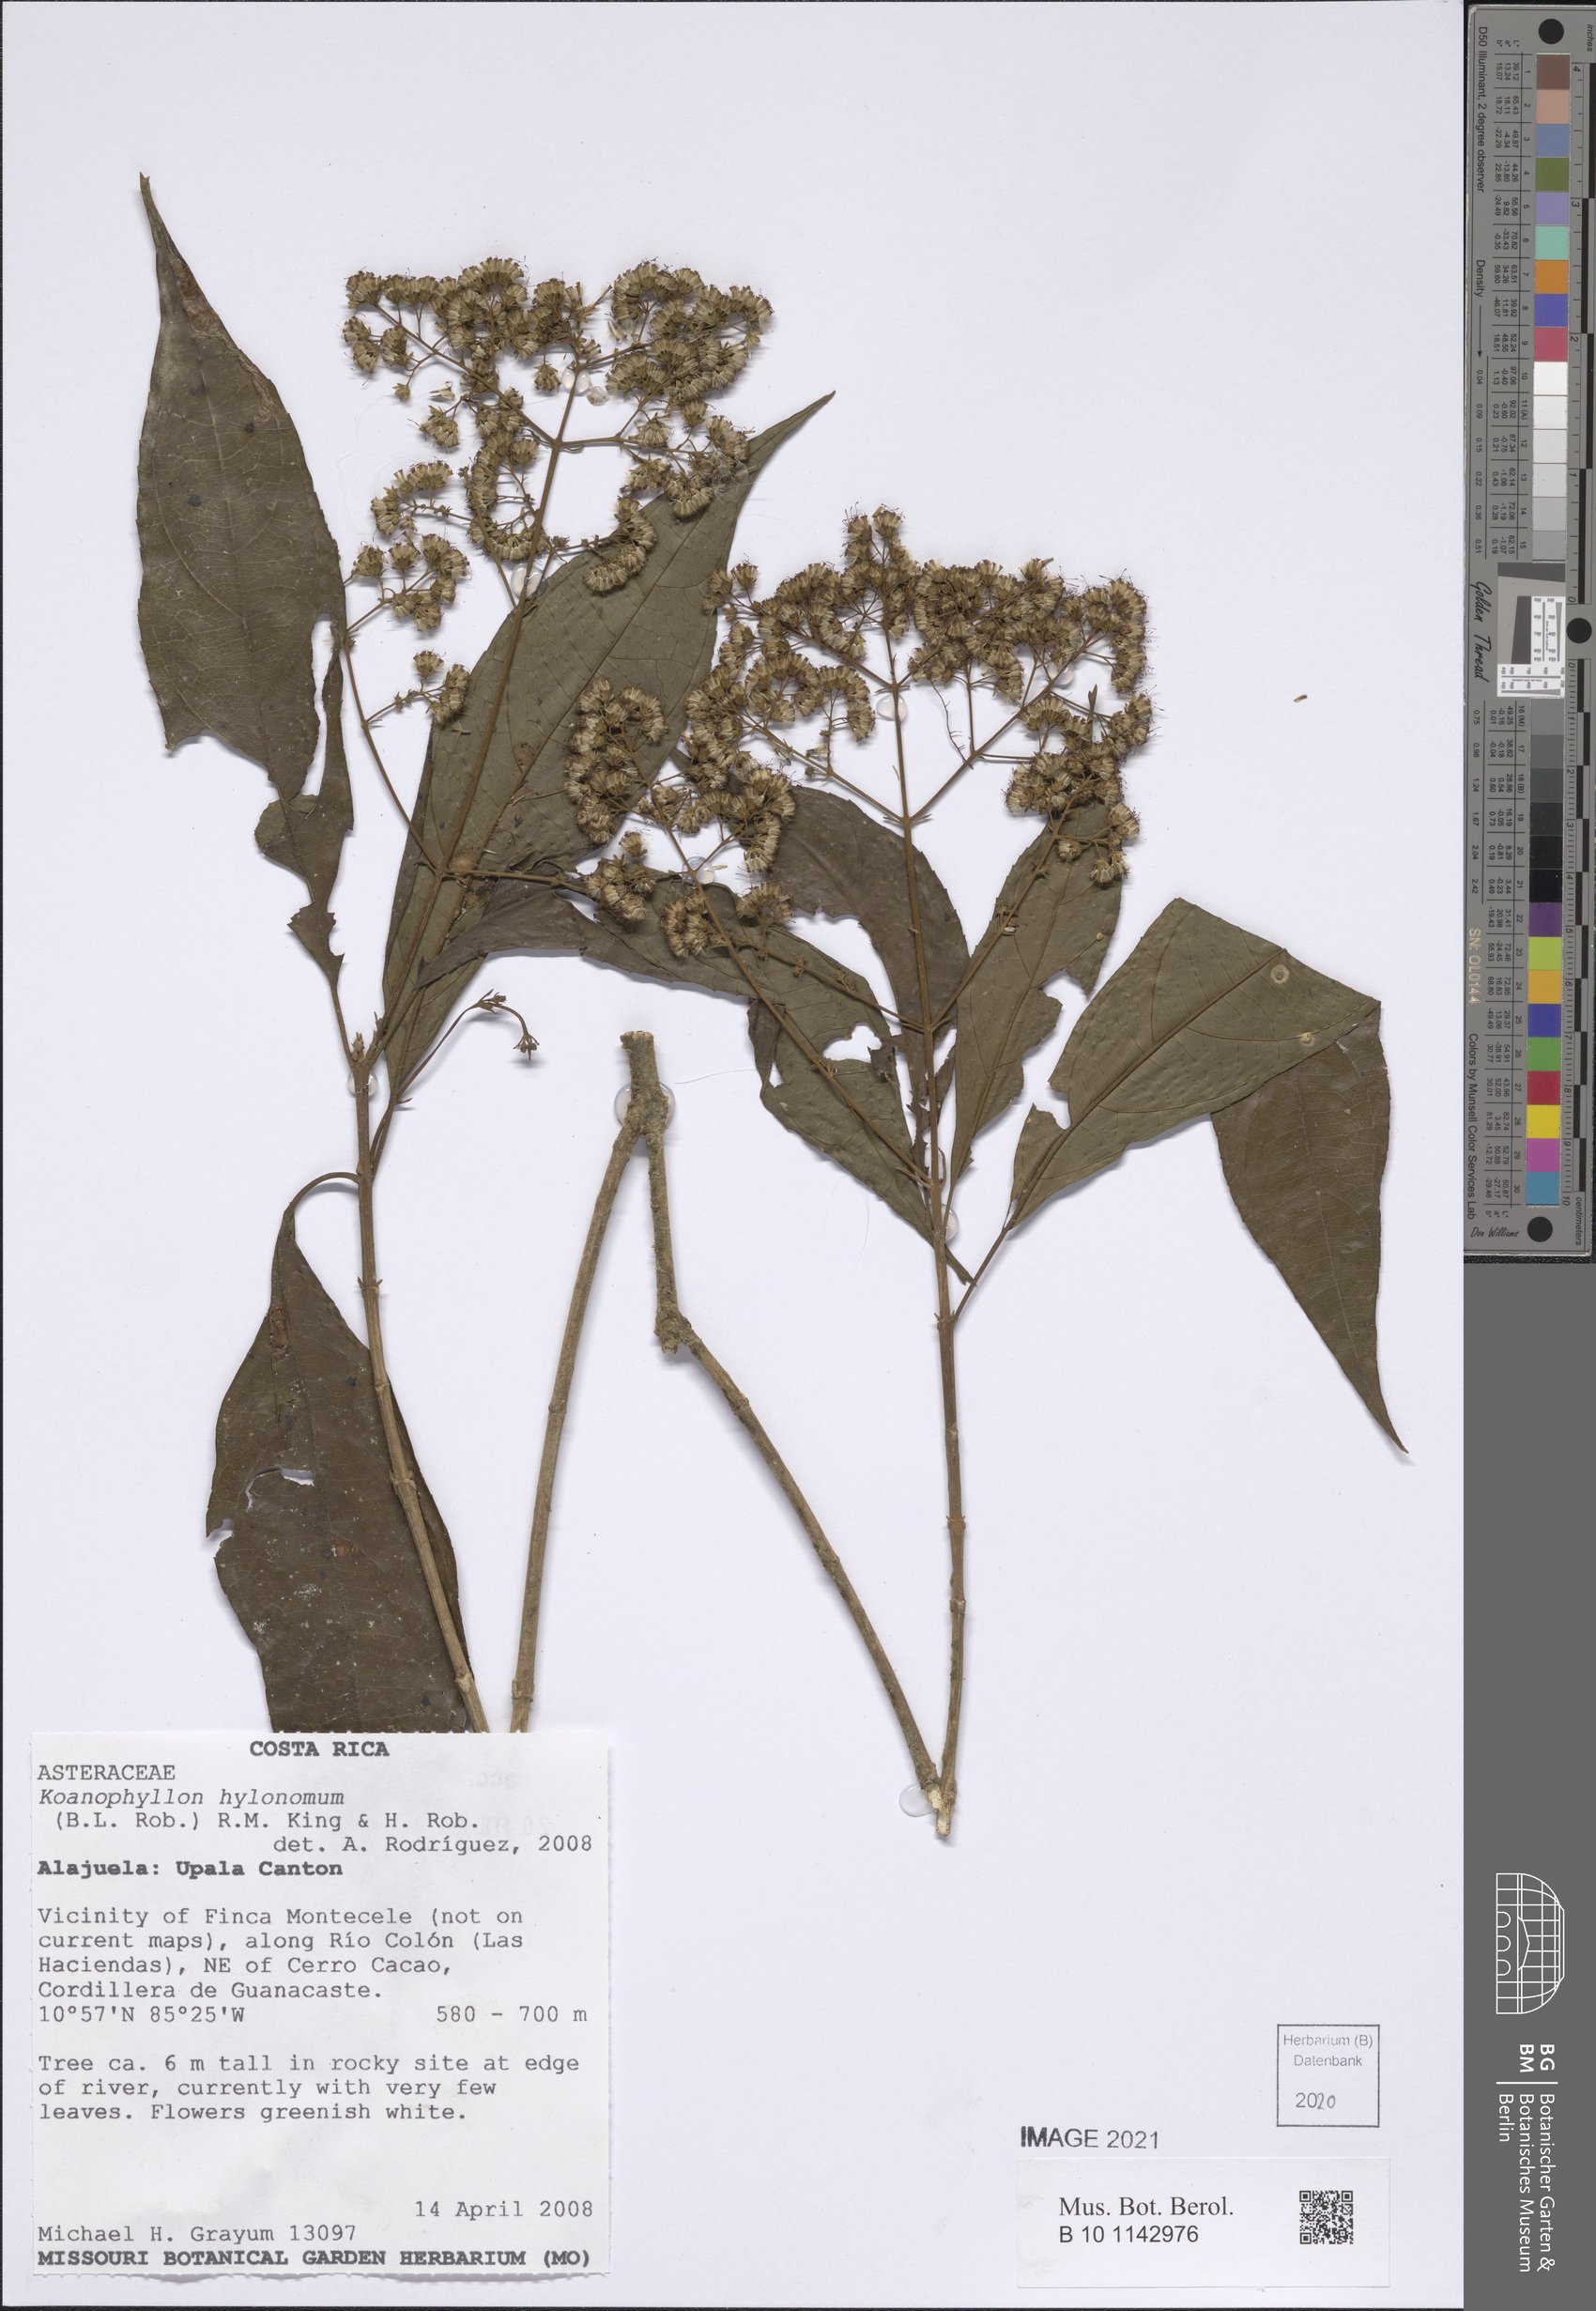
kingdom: Plantae
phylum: Tracheophyta
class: Magnoliopsida
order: Asterales
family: Asteraceae
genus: Koanophyllon
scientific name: Koanophyllon hylonomum
